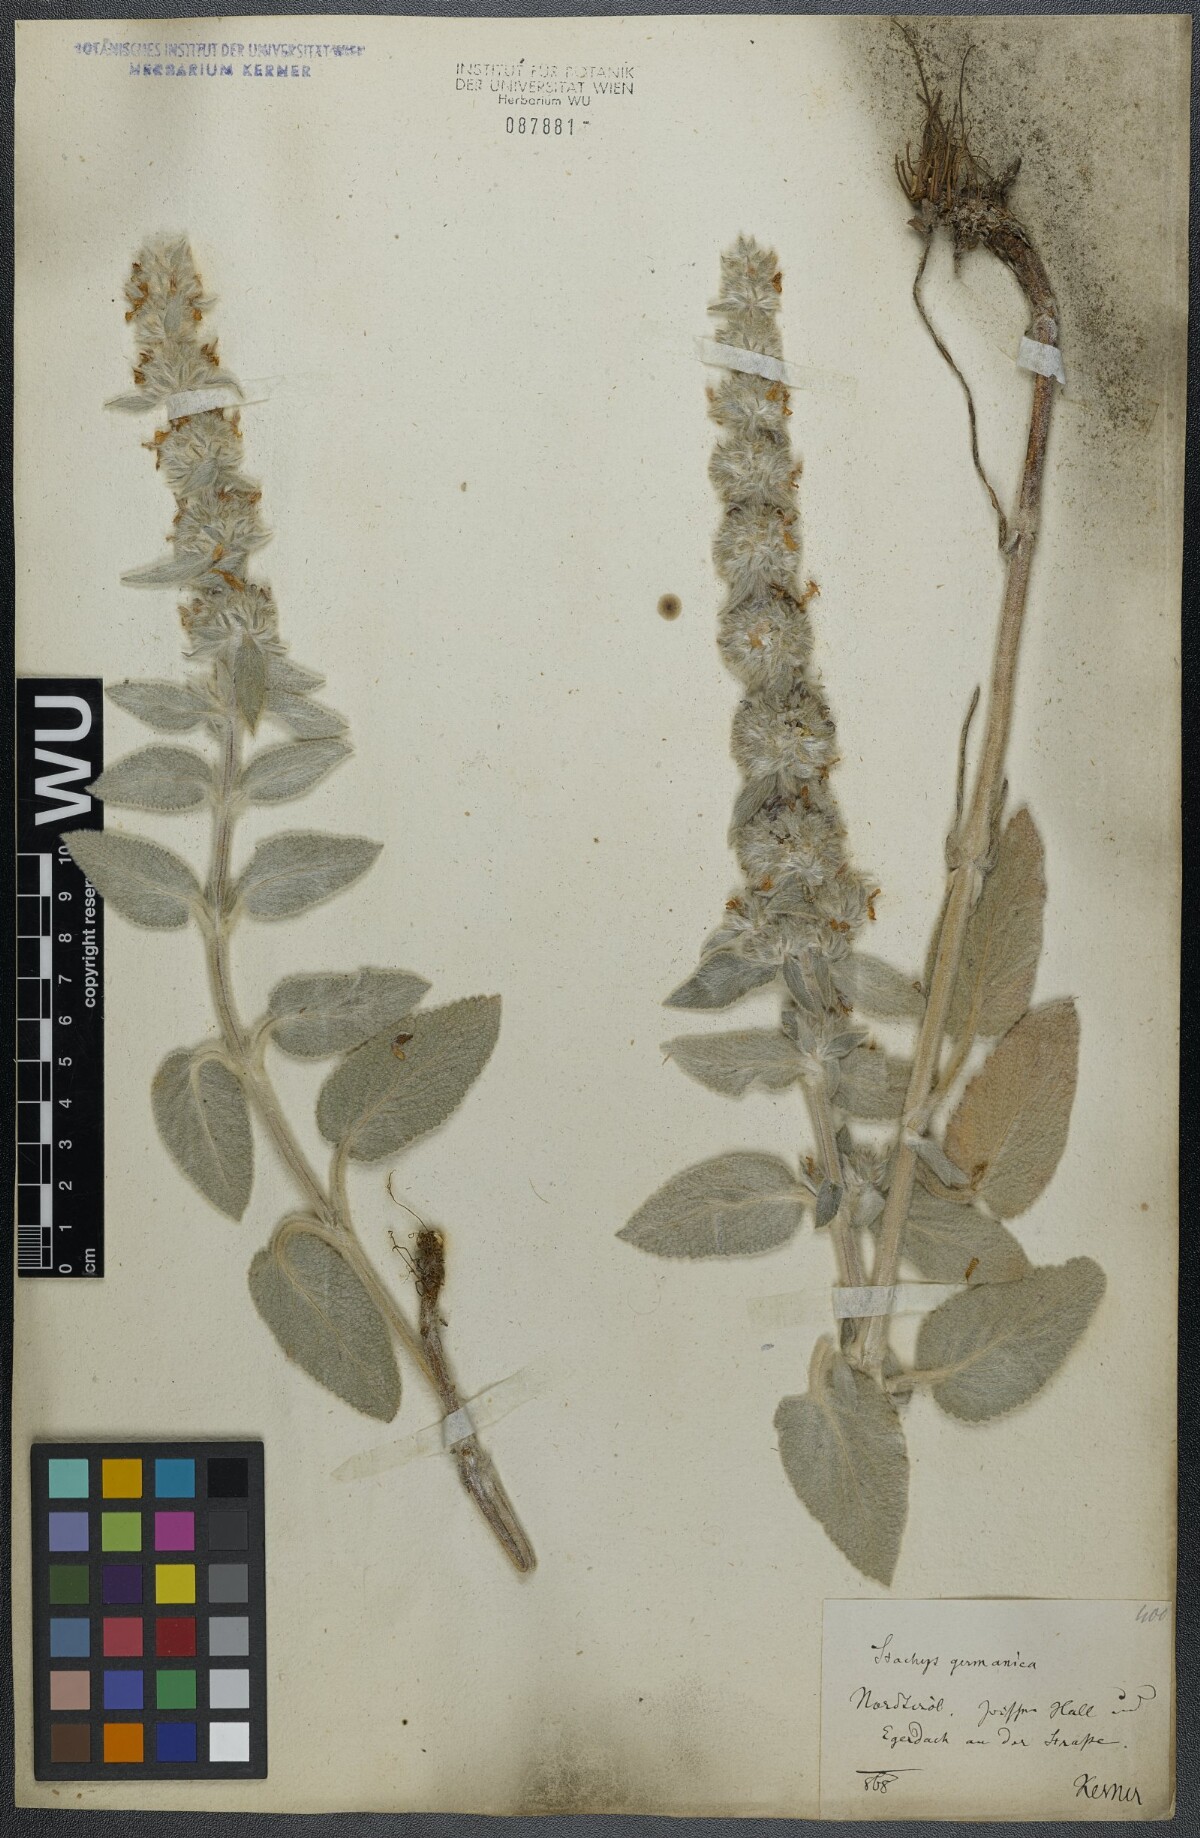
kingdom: Plantae
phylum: Tracheophyta
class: Magnoliopsida
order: Lamiales
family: Lamiaceae
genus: Stachys
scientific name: Stachys germanica
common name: Downy woundwort
